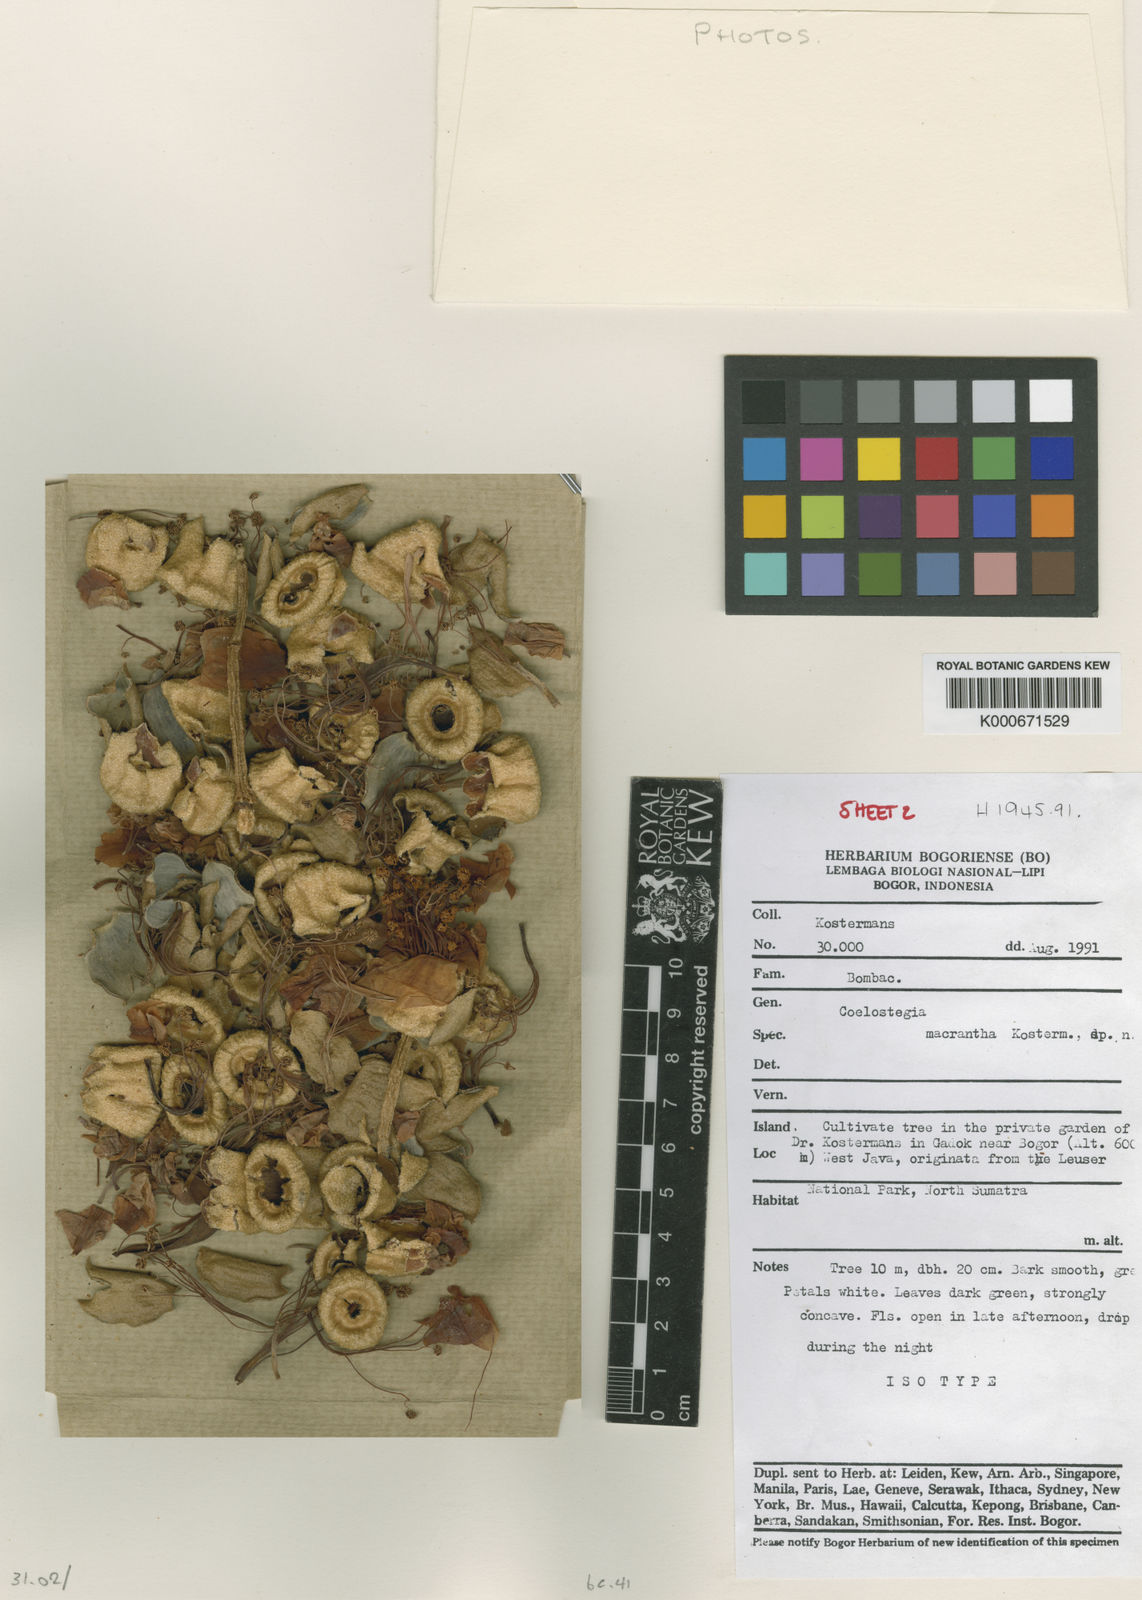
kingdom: Plantae
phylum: Tracheophyta
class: Magnoliopsida
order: Malvales
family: Malvaceae
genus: Coelostegia
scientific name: Coelostegia
